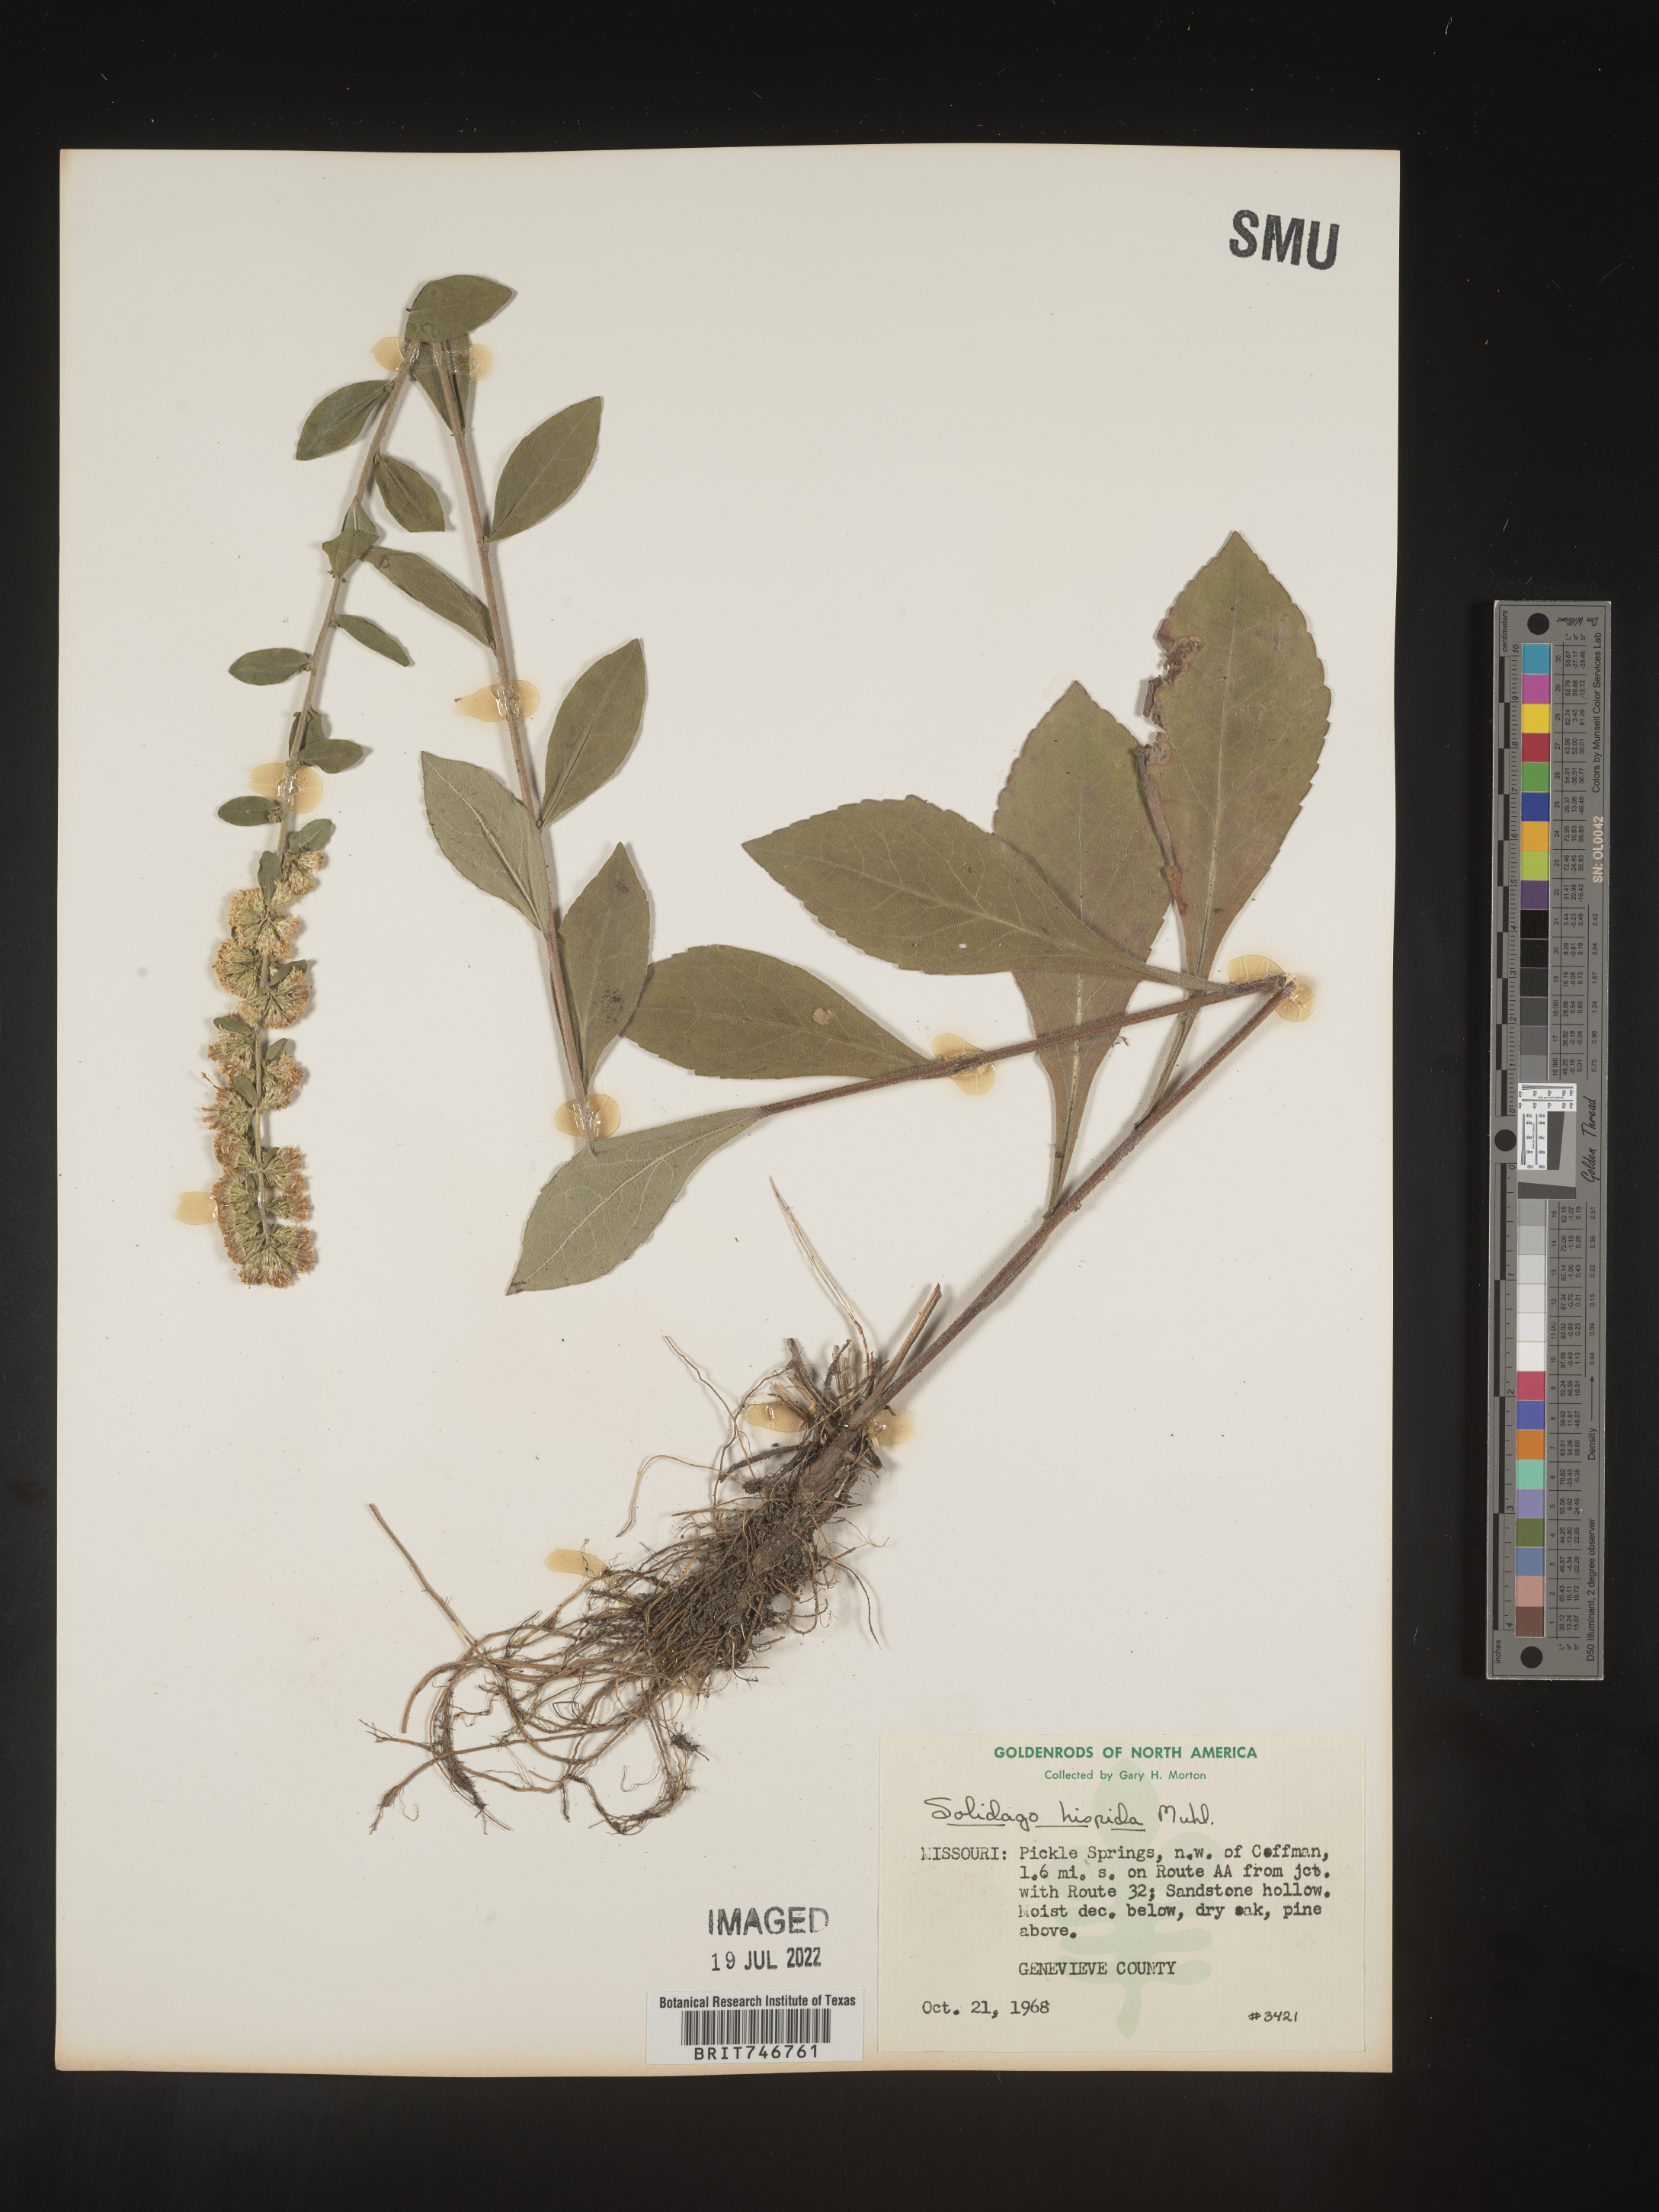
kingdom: Plantae
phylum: Tracheophyta
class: Magnoliopsida
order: Asterales
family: Asteraceae
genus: Solidago
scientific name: Solidago hispida
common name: Hairy goldenrod
